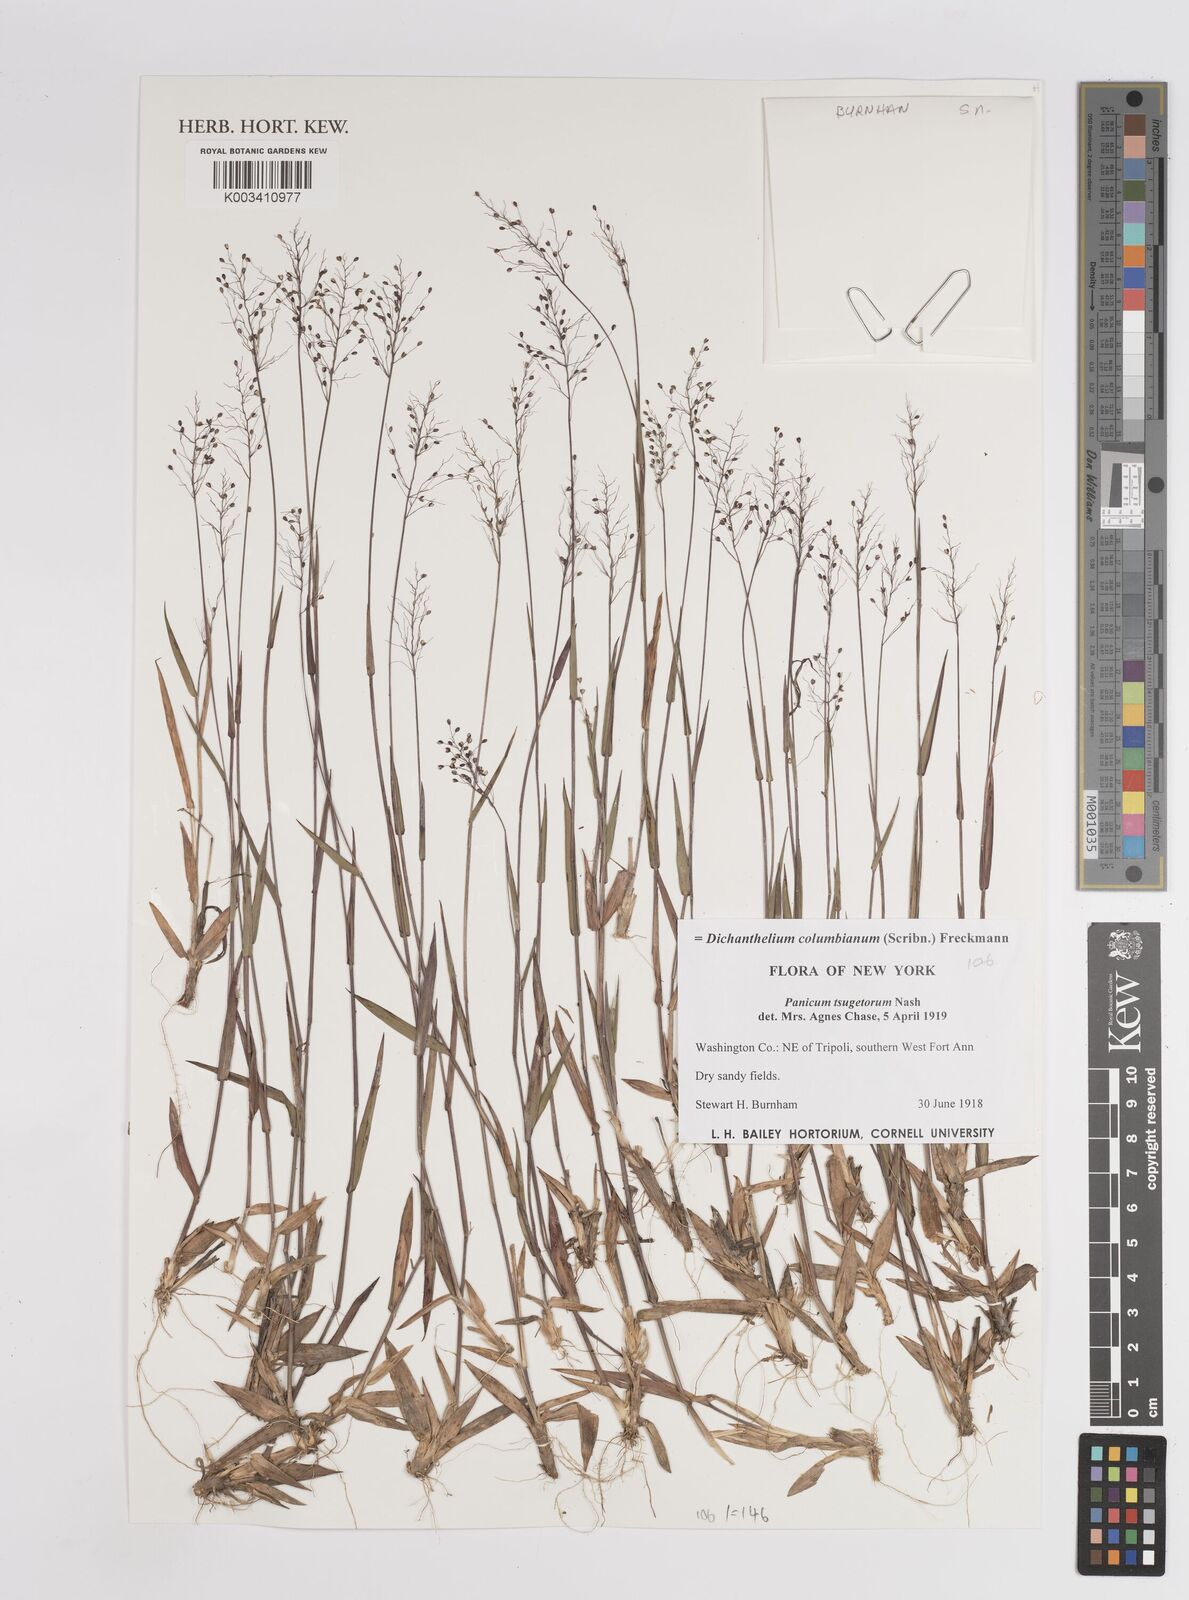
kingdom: Plantae
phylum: Tracheophyta
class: Liliopsida
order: Poales
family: Poaceae
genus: Dichanthelium
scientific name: Dichanthelium portoricense
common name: American panicgrass
